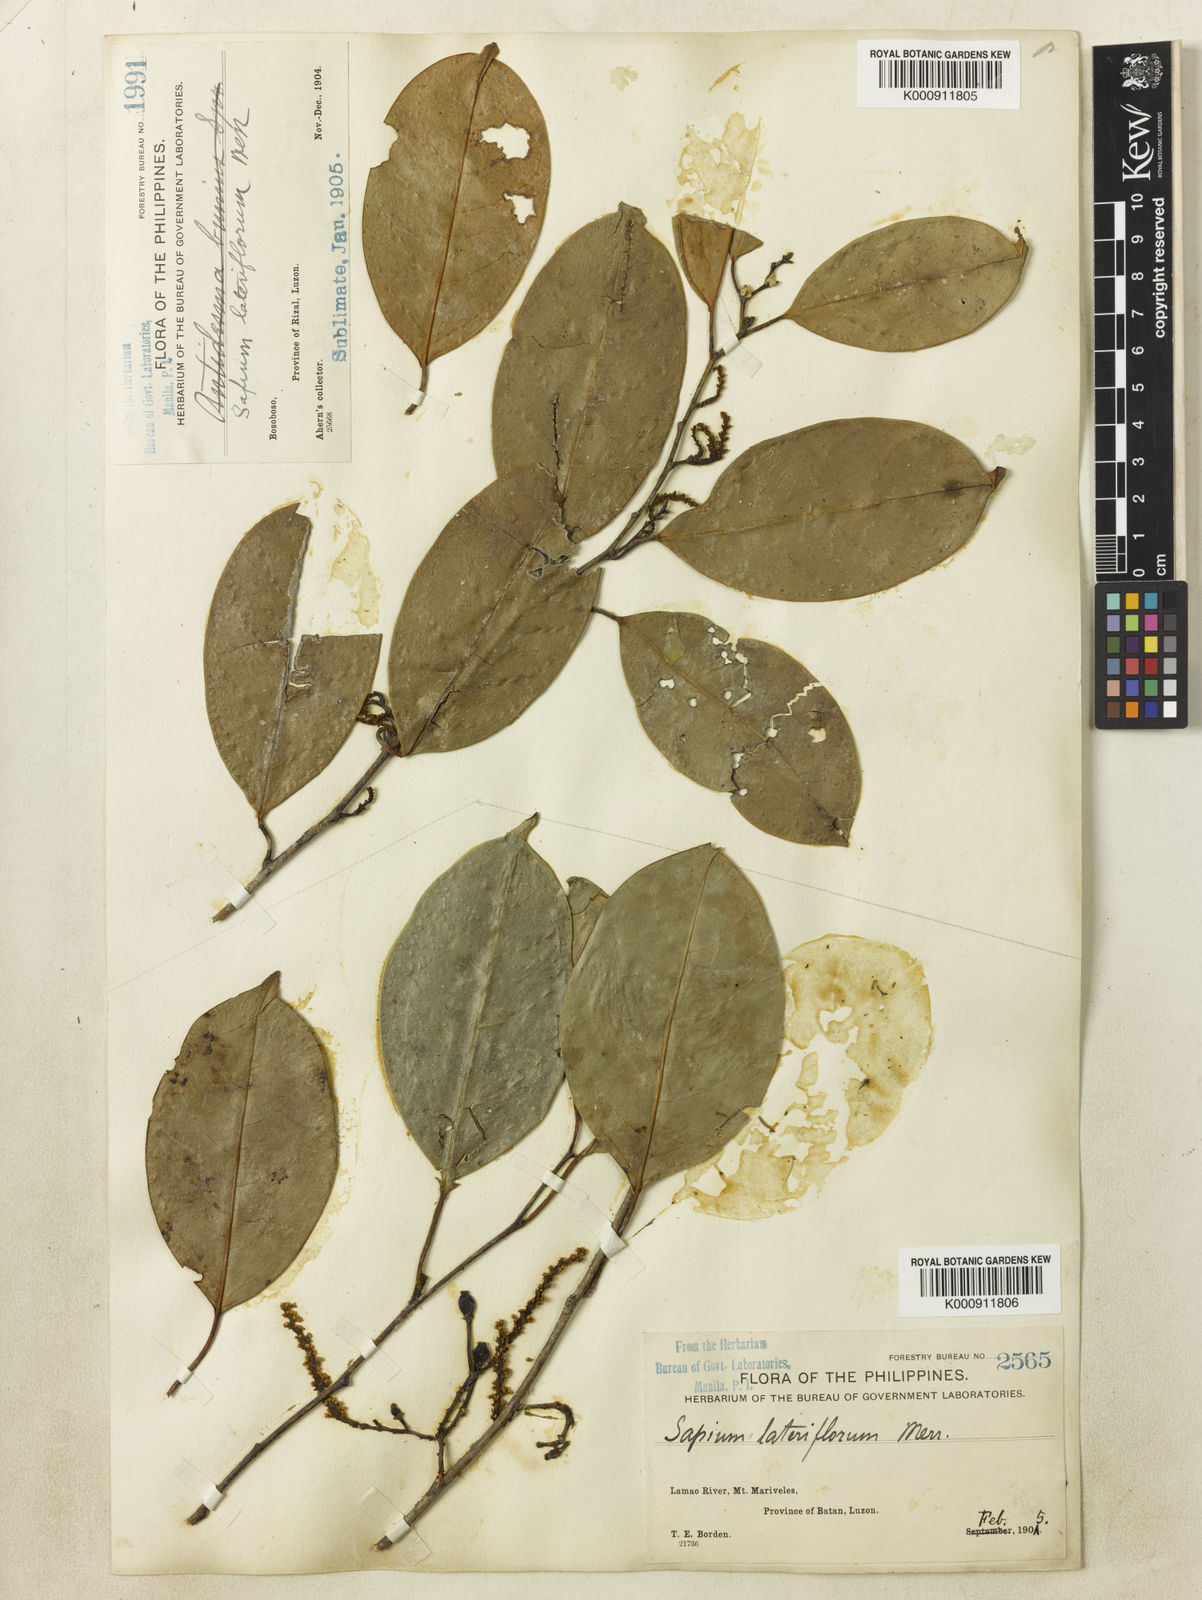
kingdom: Plantae
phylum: Tracheophyta
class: Magnoliopsida
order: Malpighiales
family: Euphorbiaceae
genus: Balakata
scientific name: Balakata luzonica
